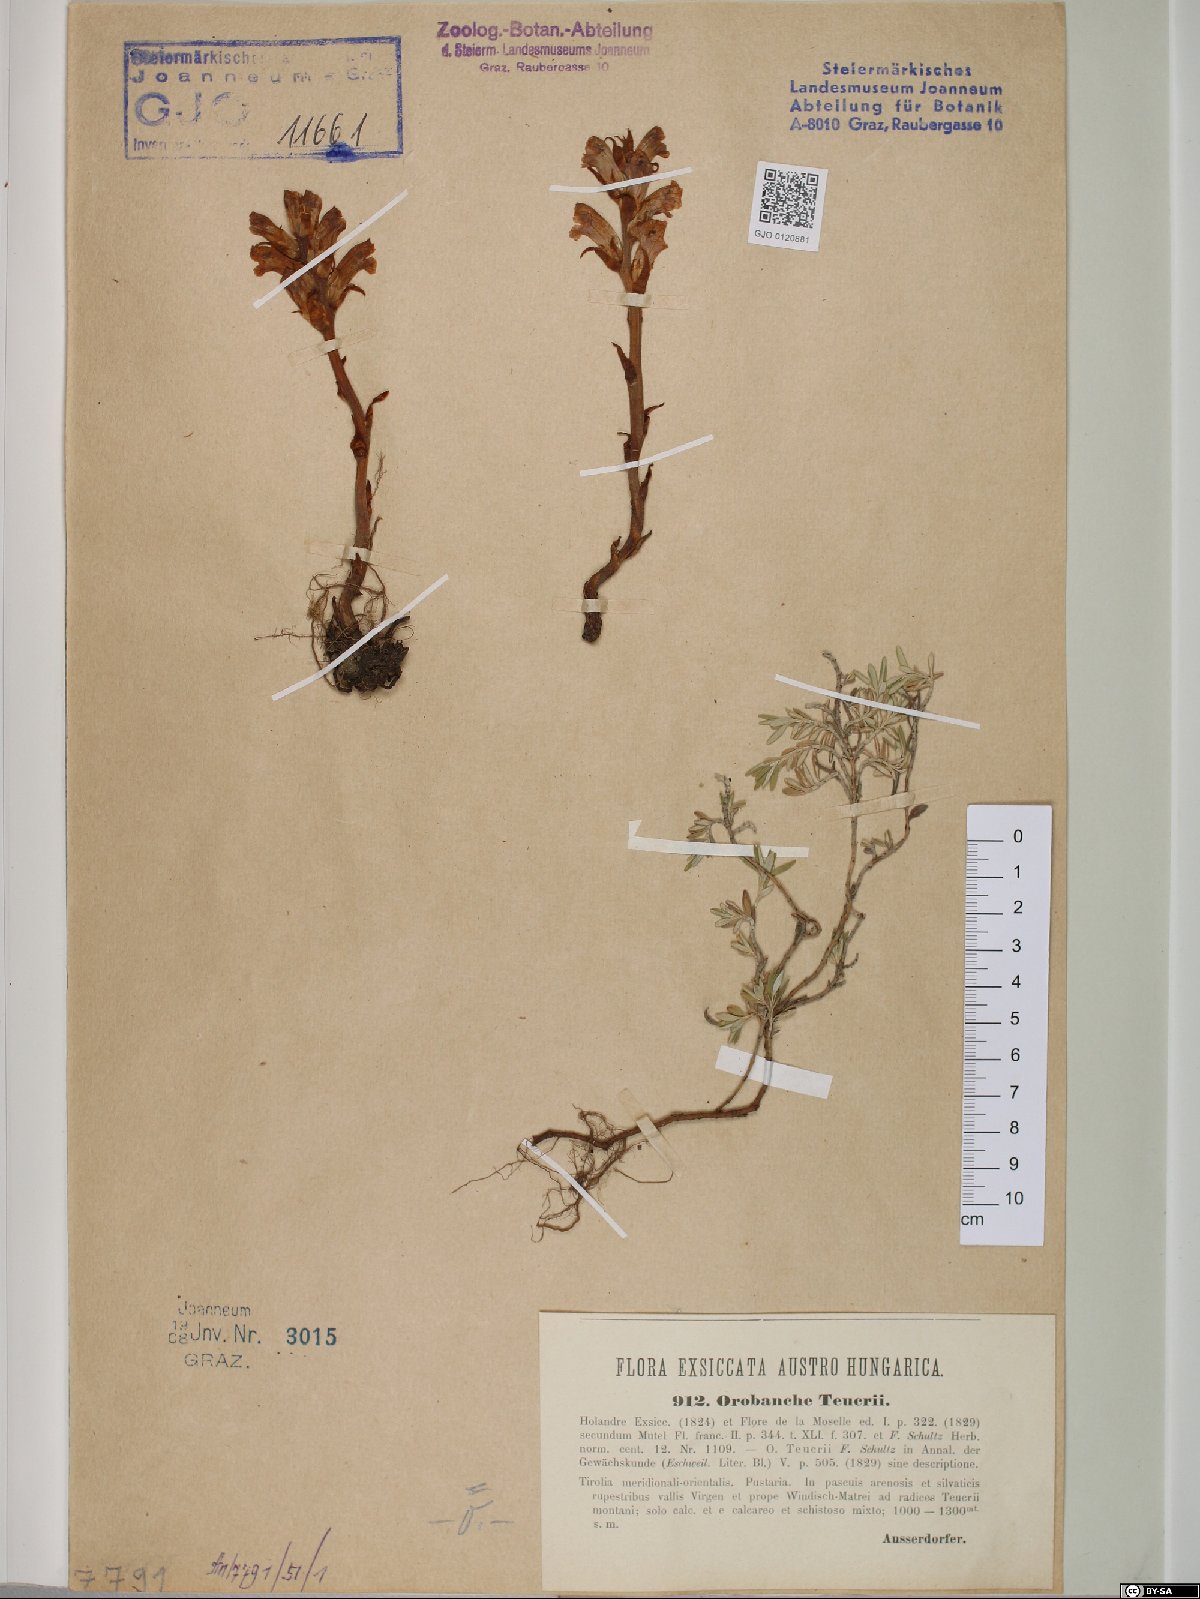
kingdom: Plantae
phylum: Tracheophyta
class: Magnoliopsida
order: Lamiales
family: Orobanchaceae
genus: Orobanche
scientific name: Orobanche teucrii
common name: Germander broomrape
